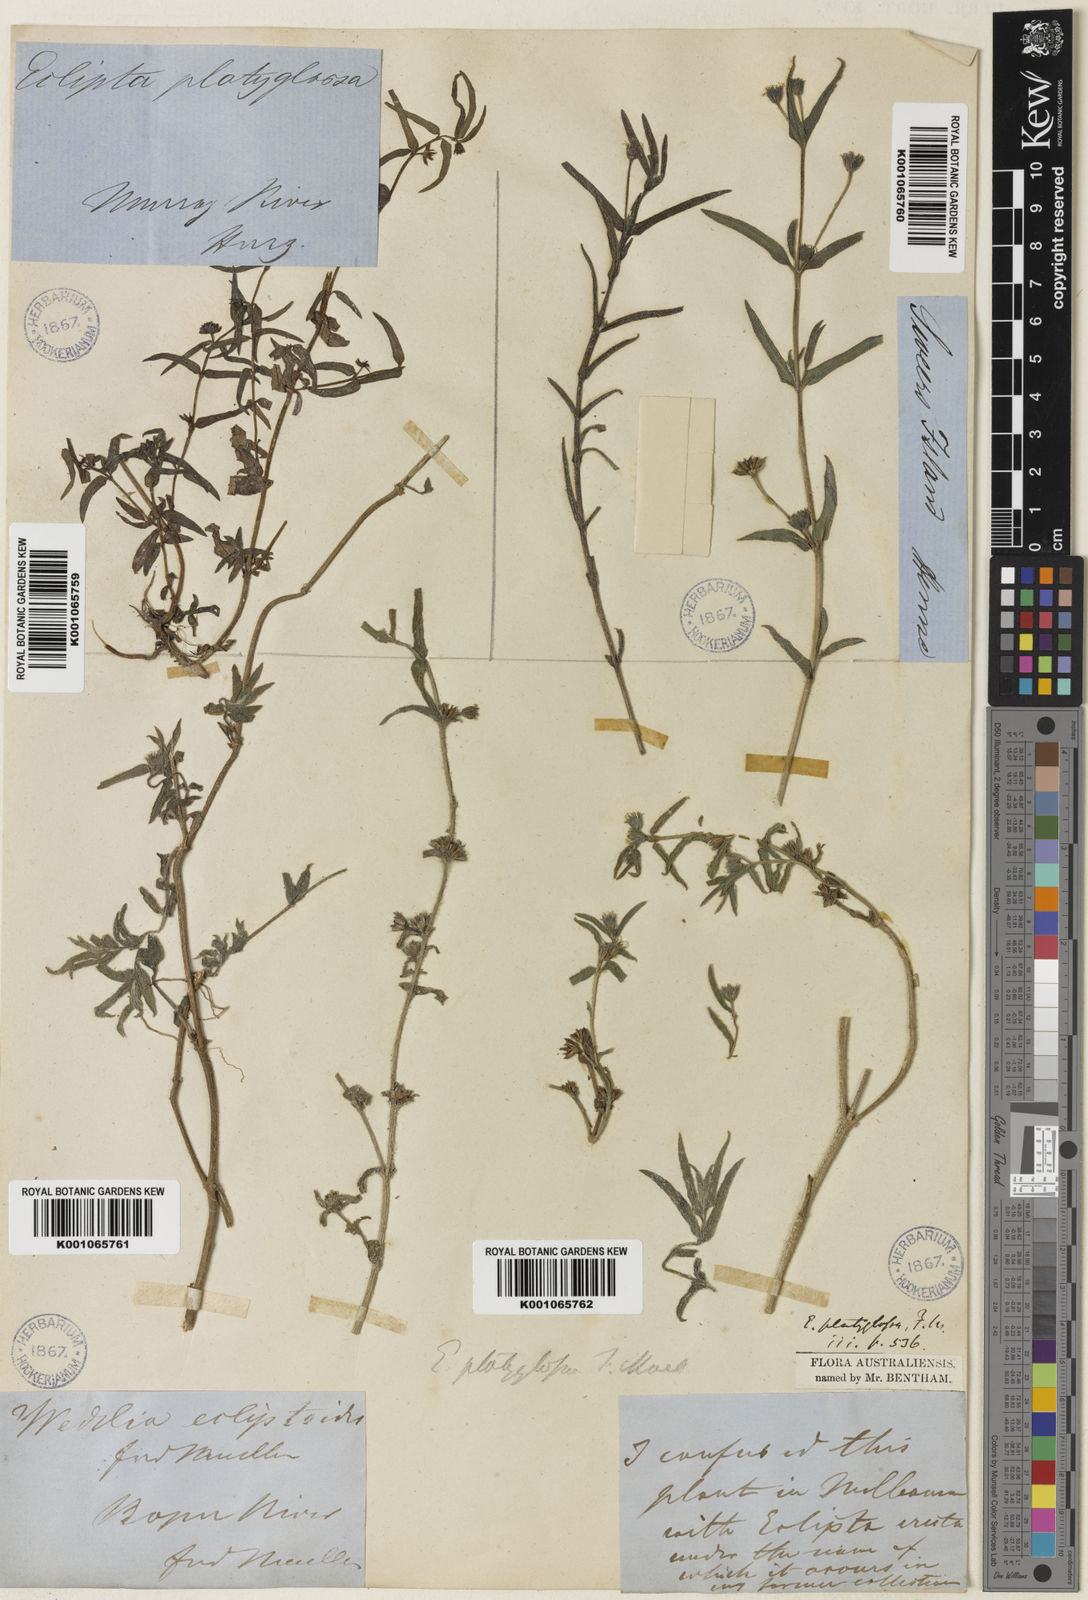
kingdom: Plantae
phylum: Tracheophyta
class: Magnoliopsida
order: Asterales
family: Asteraceae
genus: Eclipta
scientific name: Eclipta platyglossa
